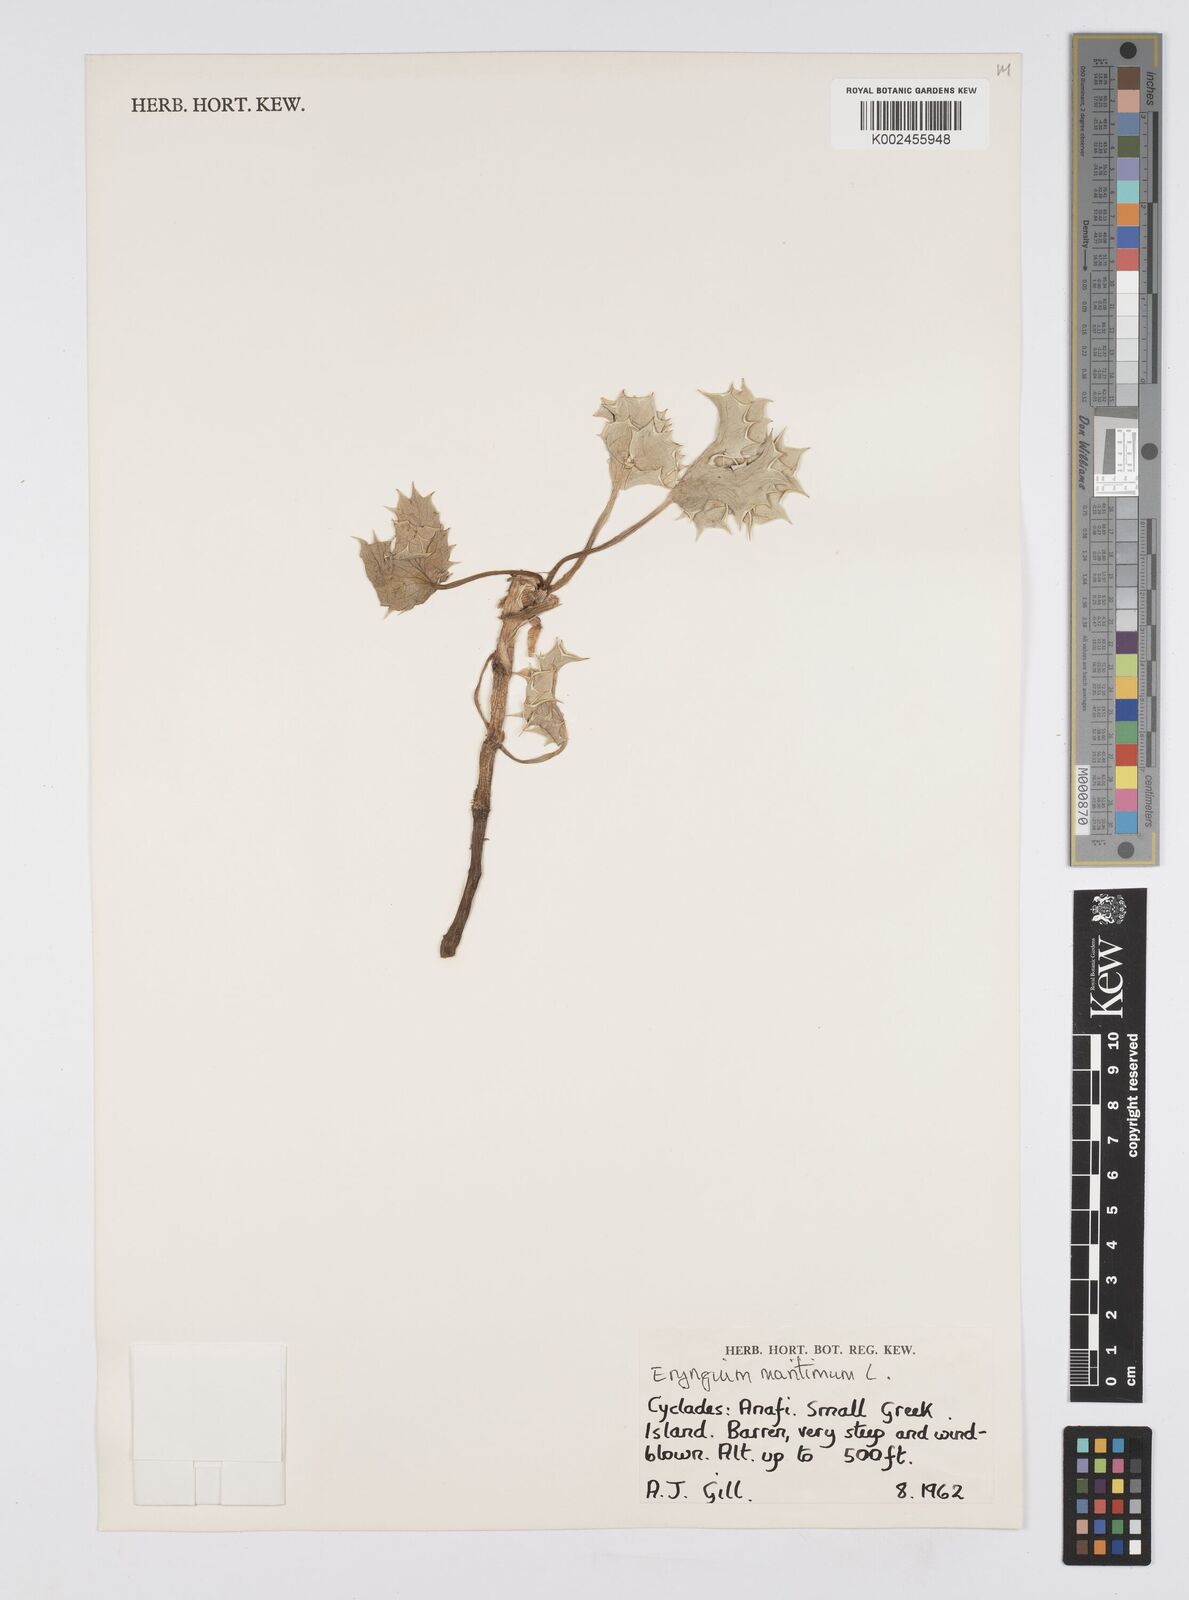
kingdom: Plantae
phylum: Tracheophyta
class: Magnoliopsida
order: Apiales
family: Apiaceae
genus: Eryngium
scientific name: Eryngium maritimum
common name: Sea-holly
